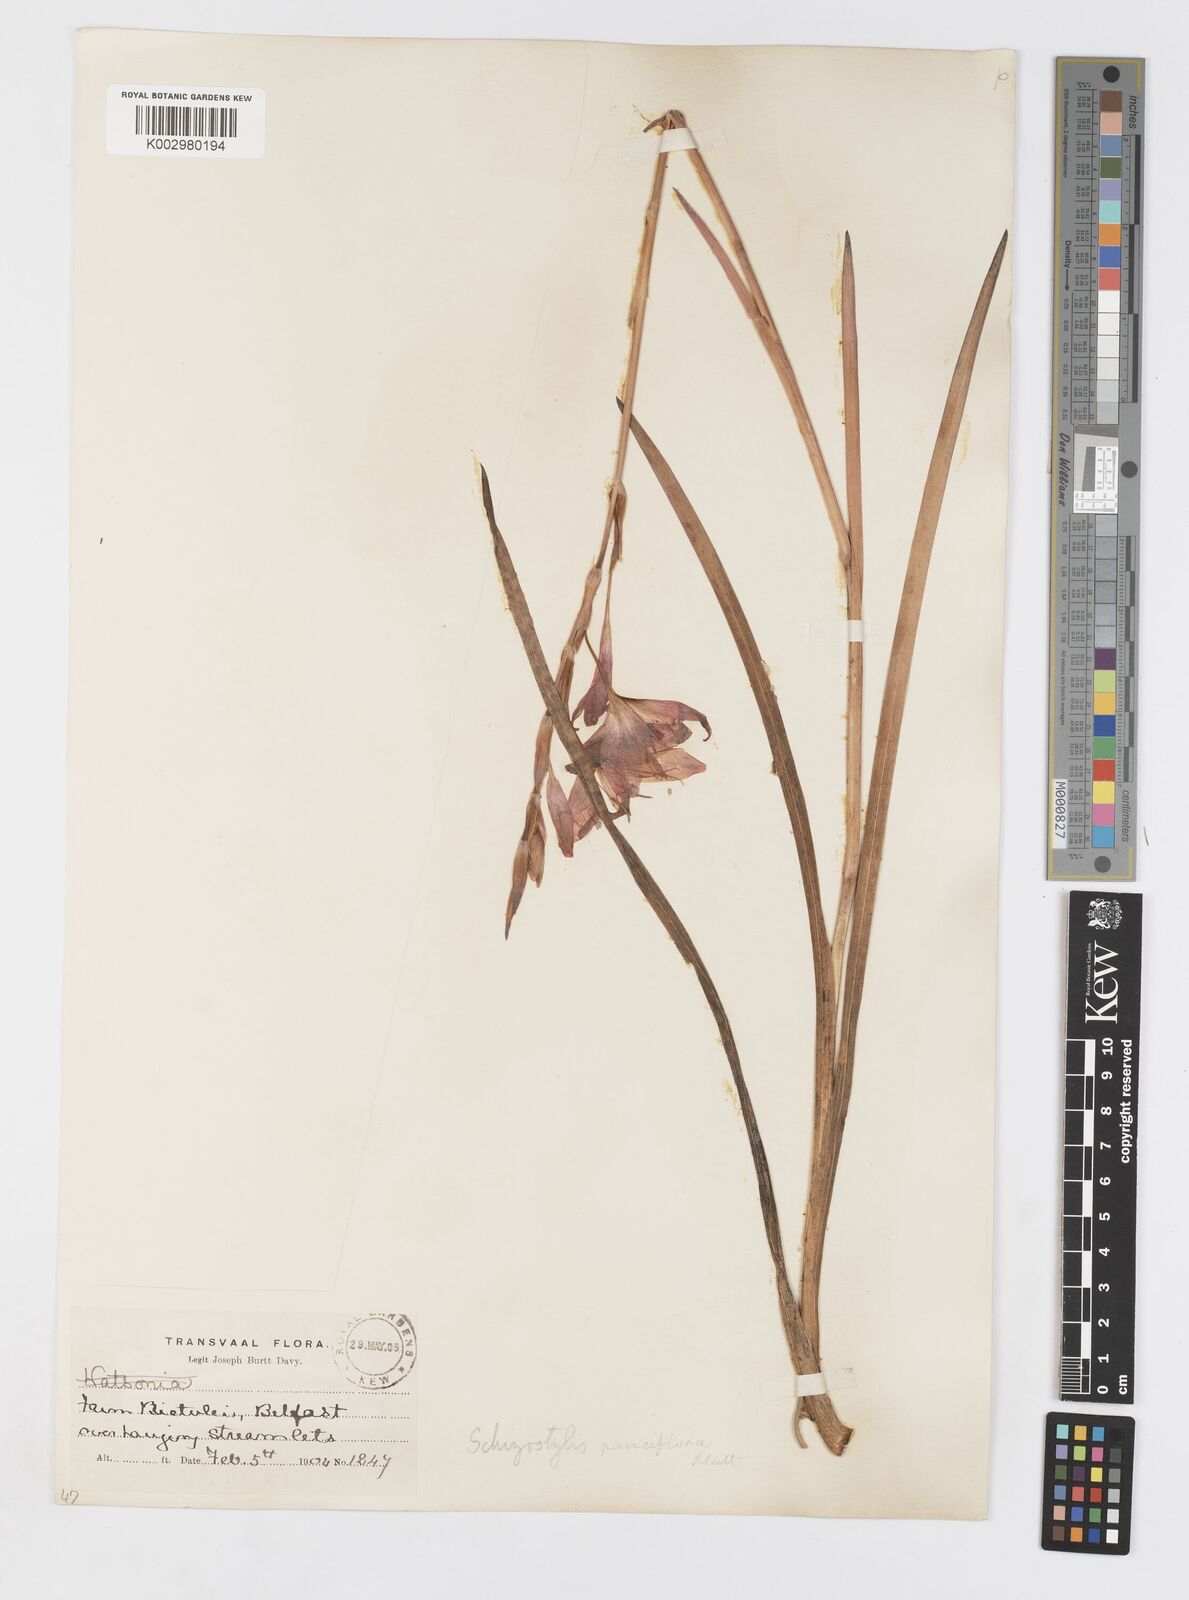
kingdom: Plantae
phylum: Tracheophyta
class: Liliopsida
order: Asparagales
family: Iridaceae
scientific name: Iridaceae
